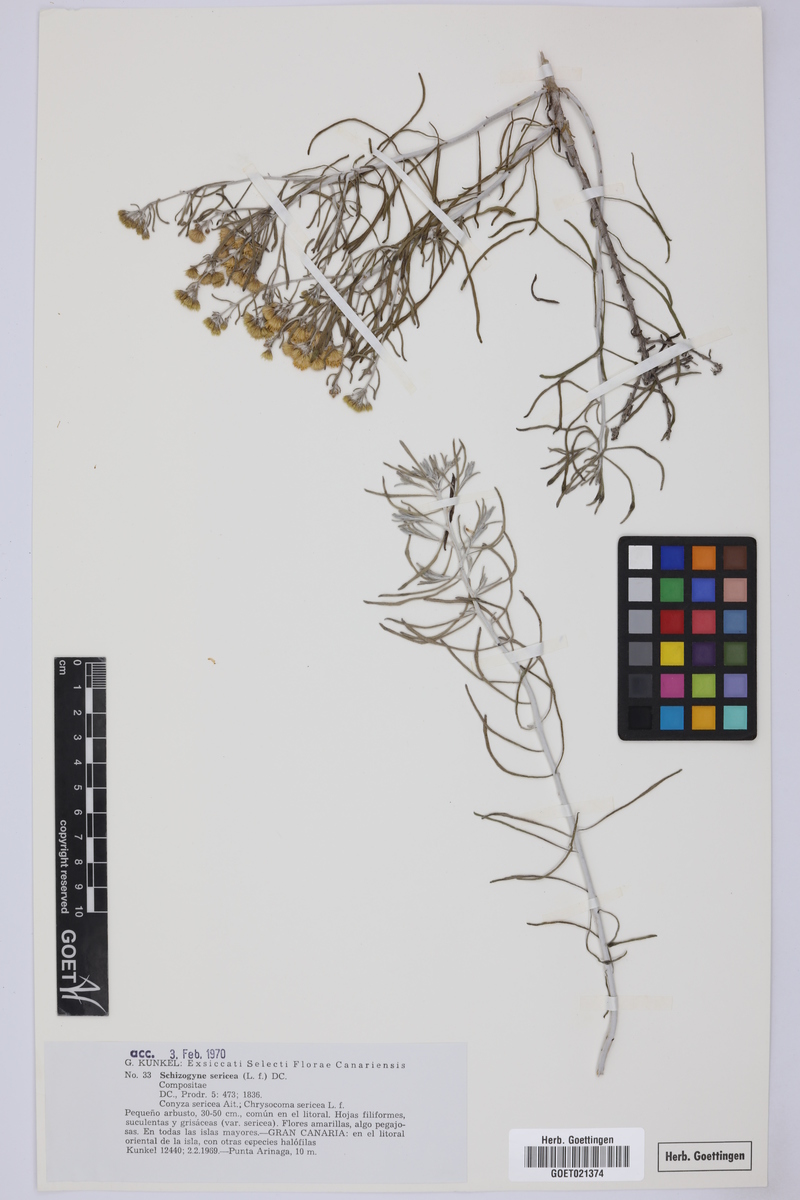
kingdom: Plantae
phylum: Tracheophyta
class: Magnoliopsida
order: Asterales
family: Asteraceae
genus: Schizogyne
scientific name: Schizogyne sericea
